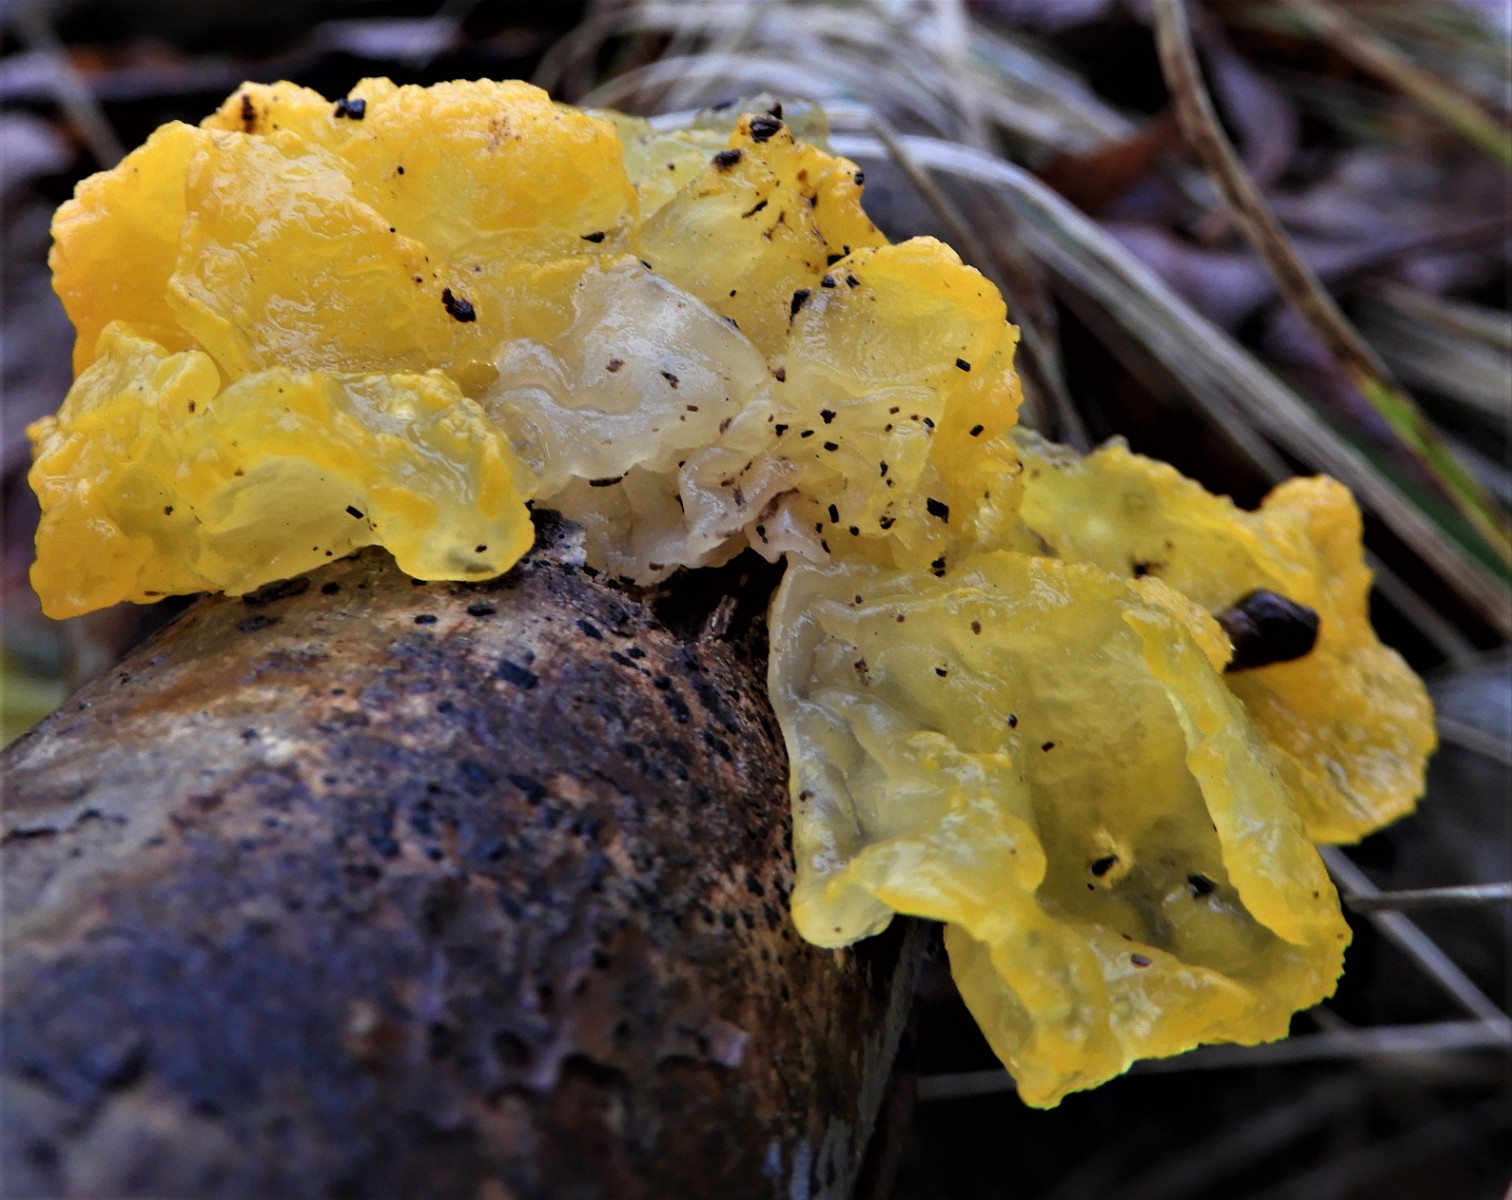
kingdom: Fungi
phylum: Basidiomycota
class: Tremellomycetes
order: Tremellales
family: Tremellaceae
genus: Tremella
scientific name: Tremella mesenterica
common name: gul bævresvamp
